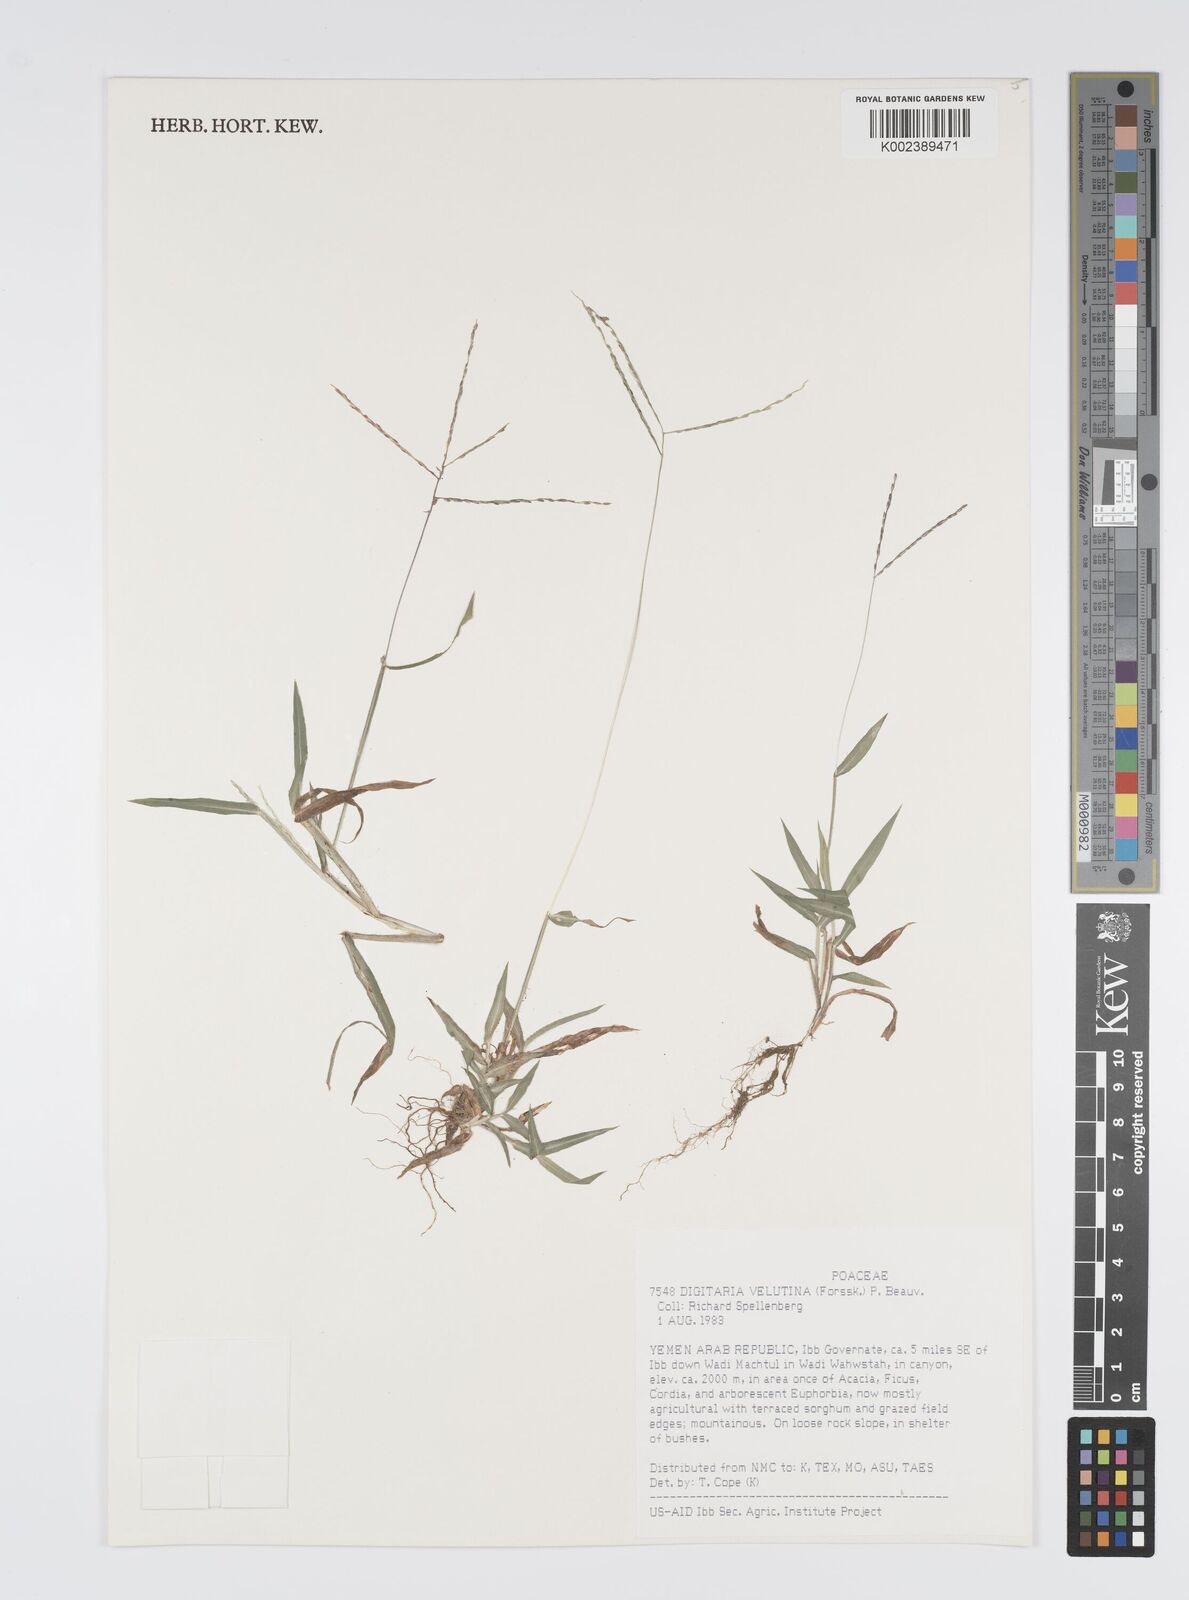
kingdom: Plantae
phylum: Tracheophyta
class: Liliopsida
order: Poales
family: Poaceae
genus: Digitaria
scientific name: Digitaria velutina
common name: Long-plume finger grass
